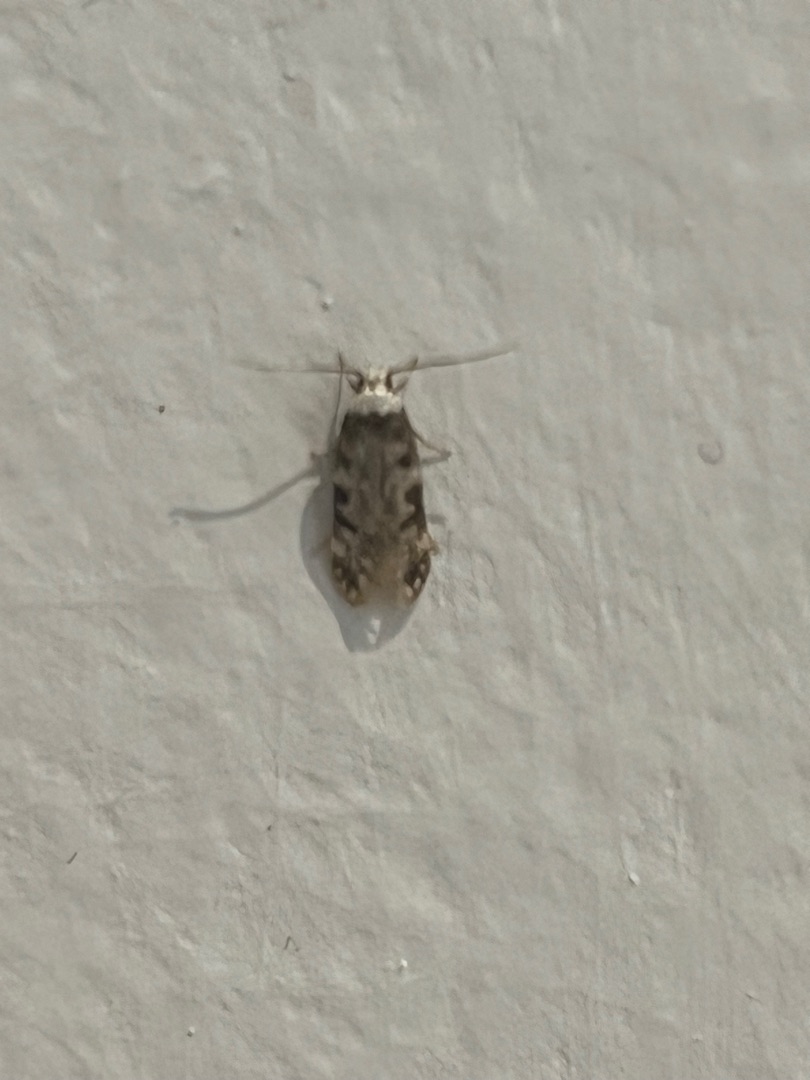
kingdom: Animalia
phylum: Arthropoda
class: Insecta
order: Lepidoptera
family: Oecophoridae
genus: Endrosis
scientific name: Endrosis sarcitrella
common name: Klistermøl
